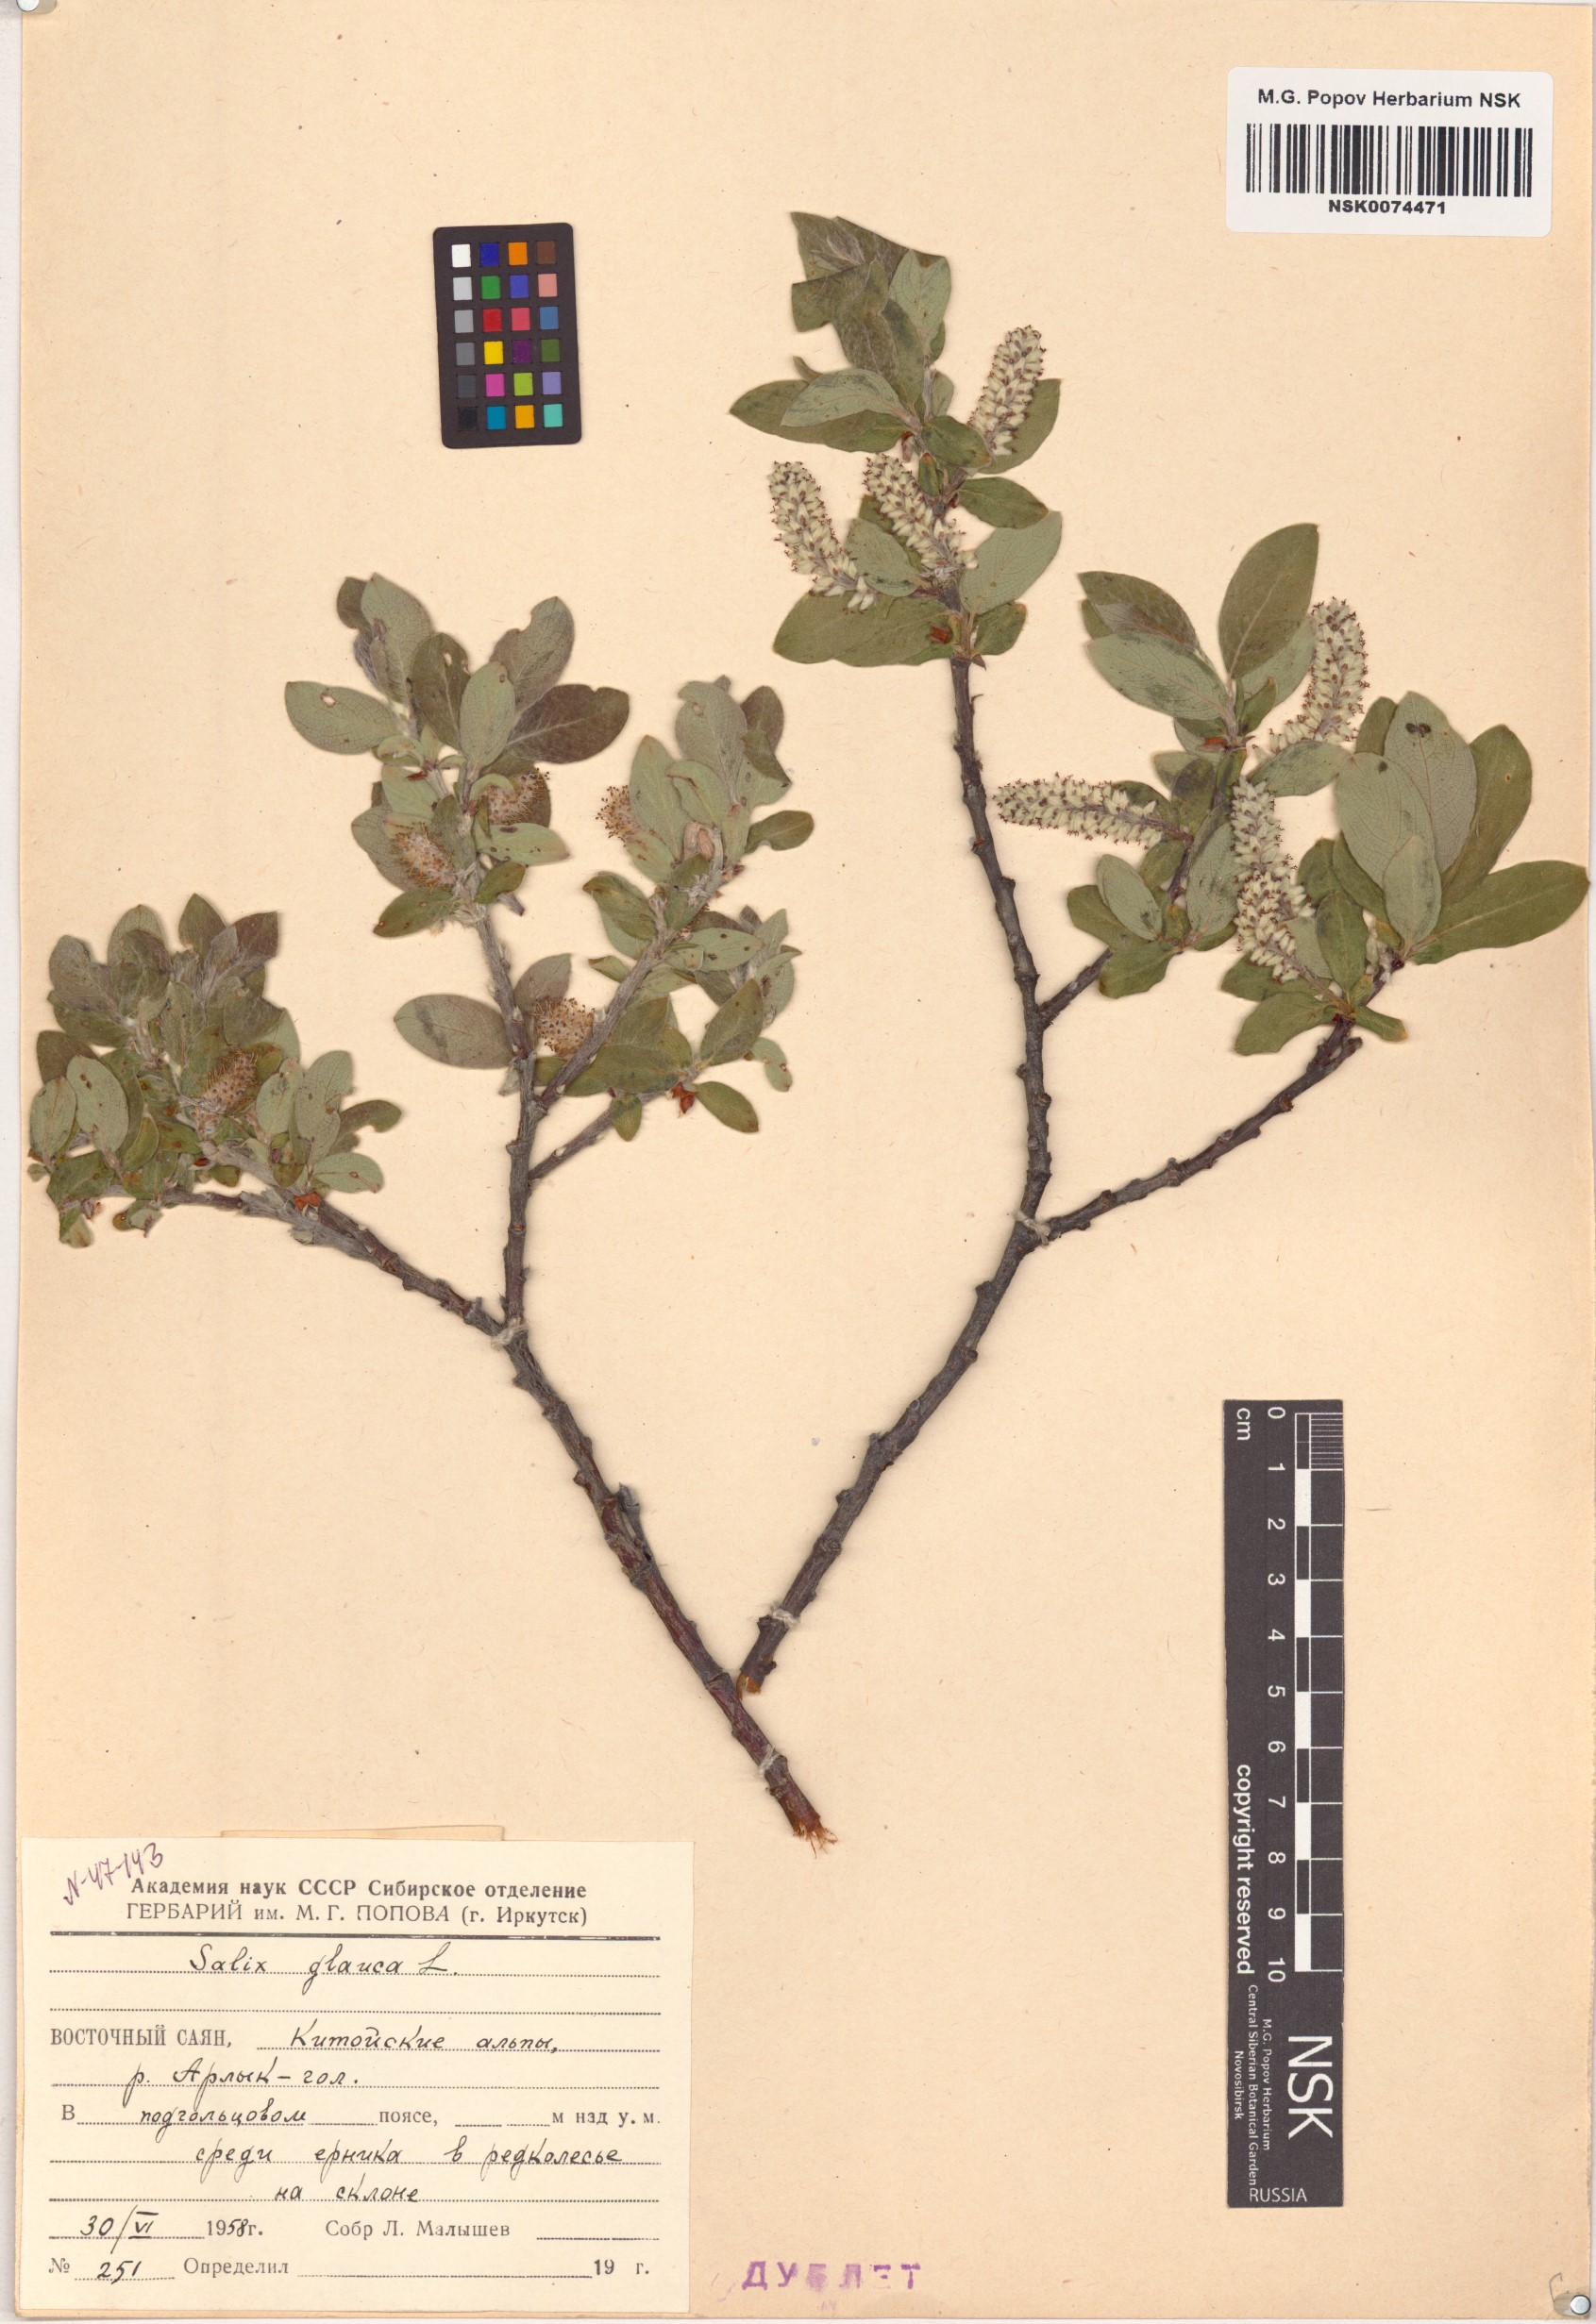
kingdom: Plantae
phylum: Tracheophyta
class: Magnoliopsida
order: Malpighiales
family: Salicaceae
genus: Salix
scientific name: Salix glauca
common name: Glaucous willow
